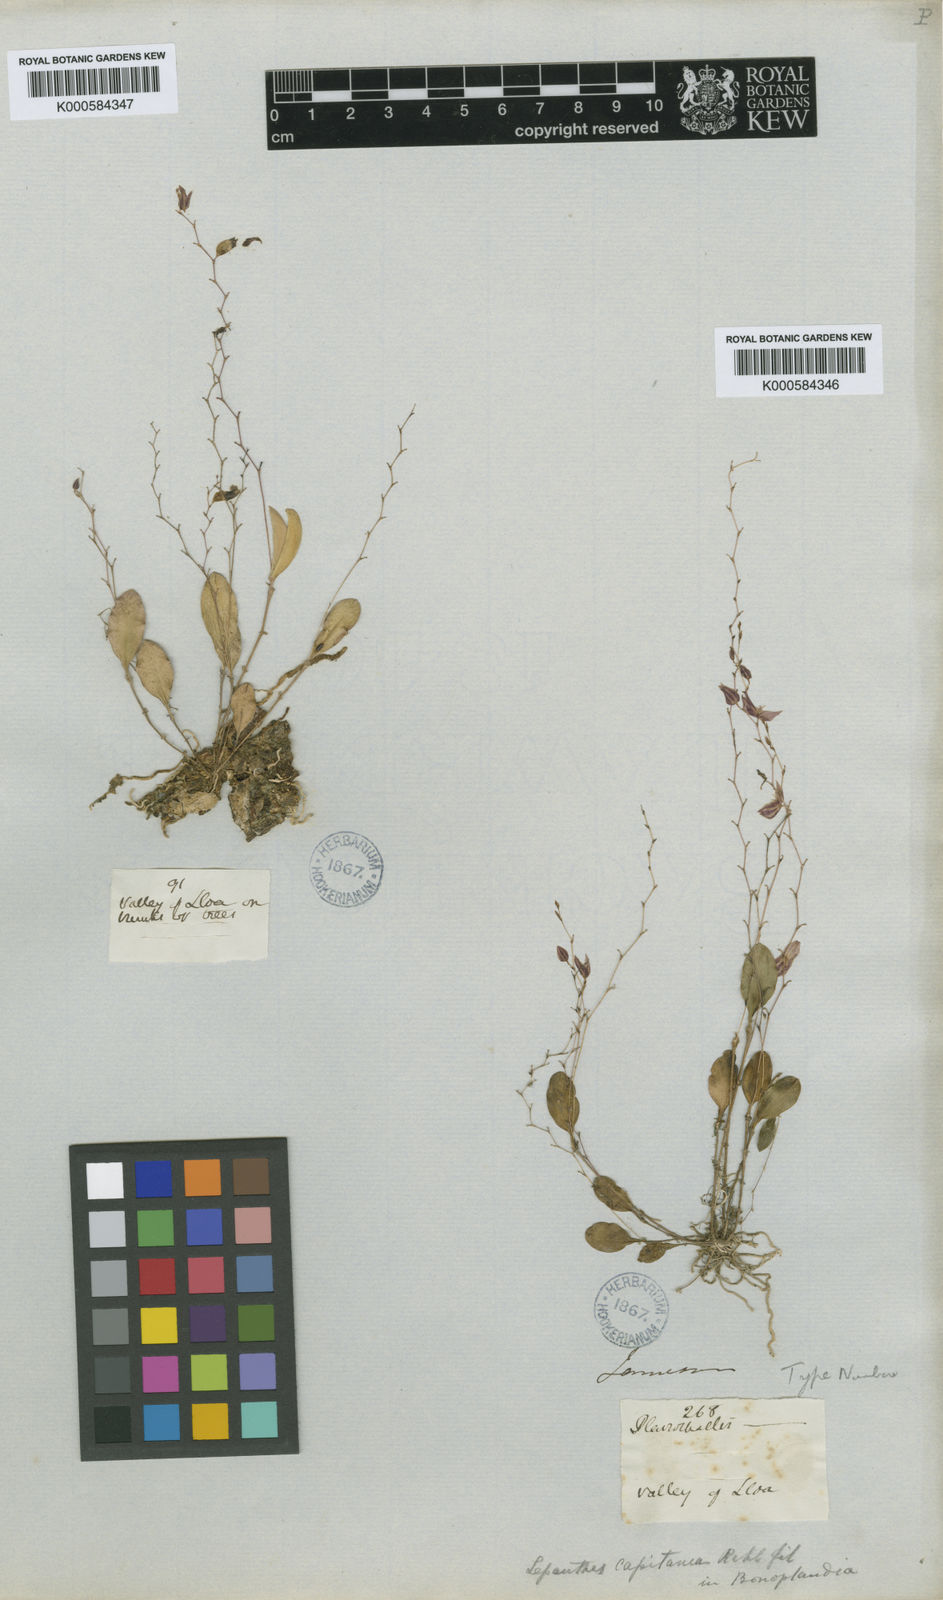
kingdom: Plantae
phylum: Tracheophyta
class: Liliopsida
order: Asparagales
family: Orchidaceae
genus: Lepanthes
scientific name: Lepanthes capitana
